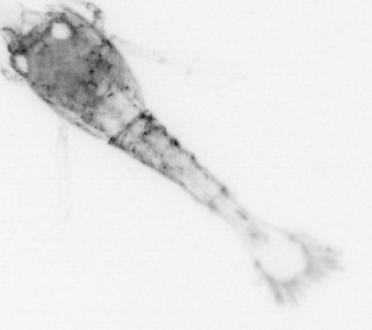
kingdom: Animalia
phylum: Arthropoda
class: Malacostraca
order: Decapoda
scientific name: Decapoda
